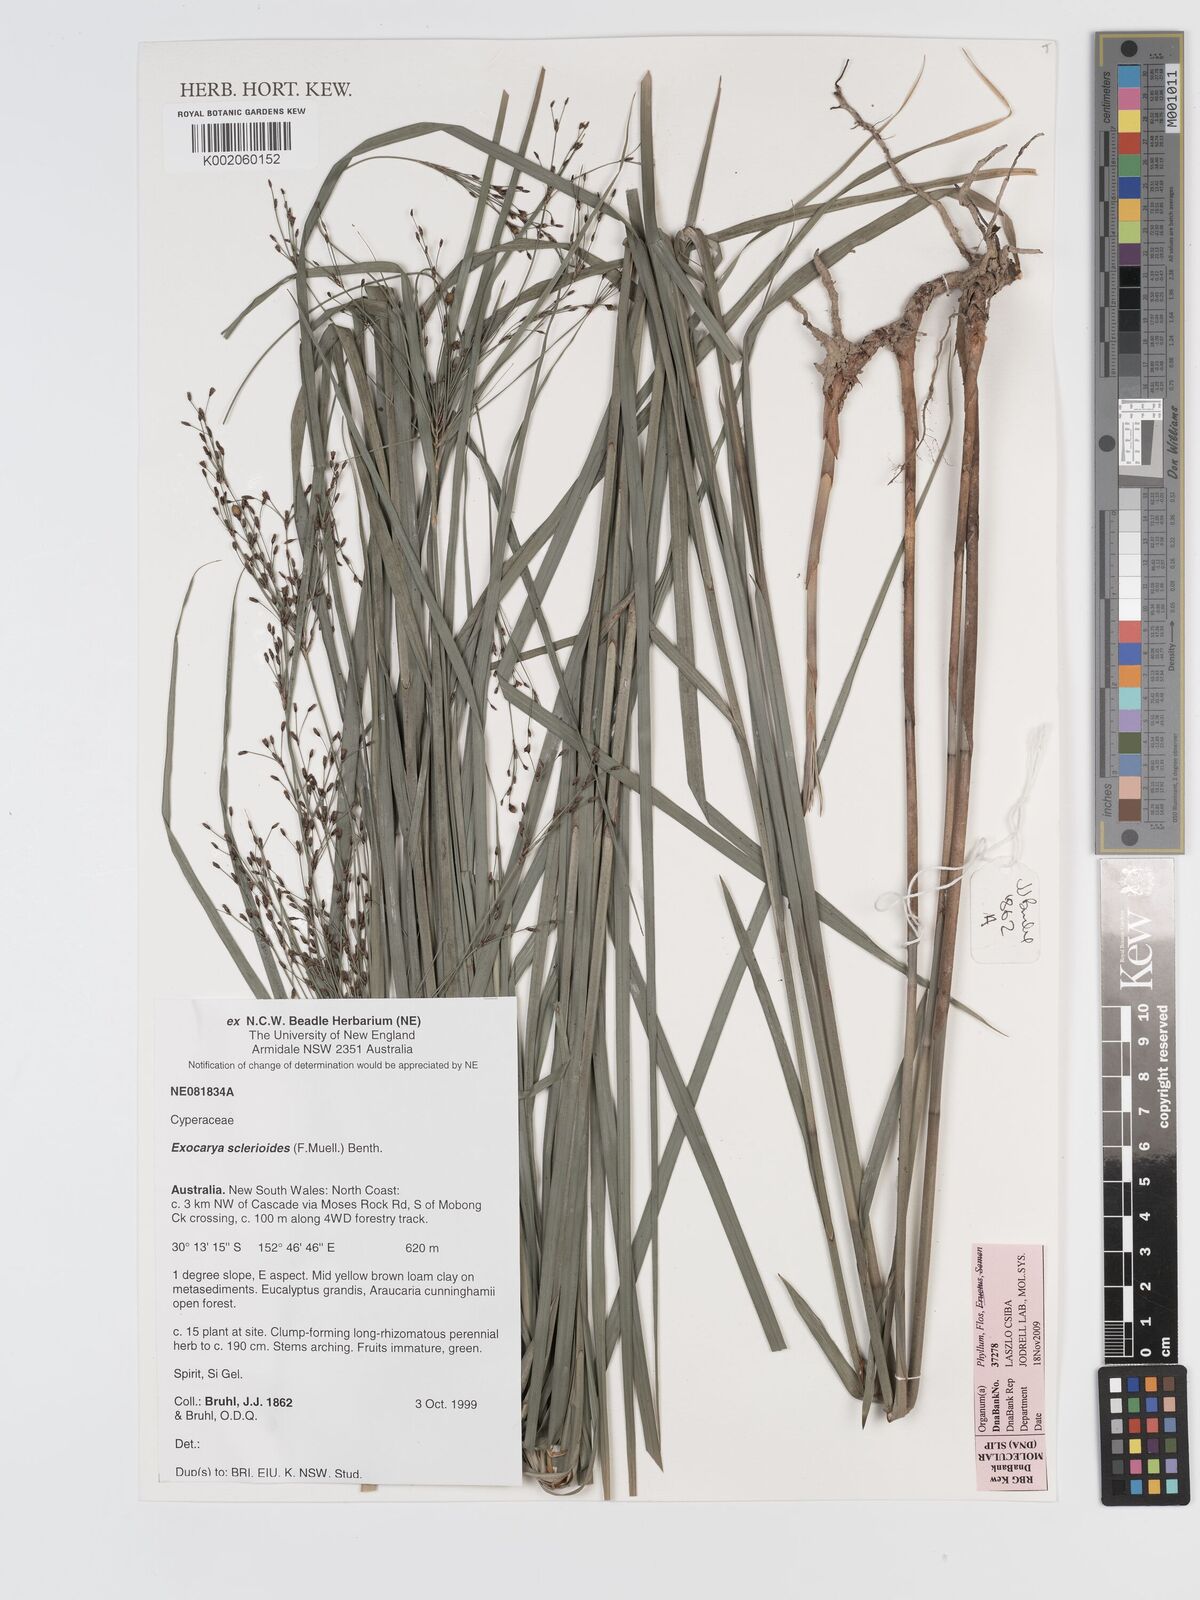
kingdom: Plantae
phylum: Tracheophyta
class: Liliopsida
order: Poales
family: Cyperaceae
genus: Exocarya
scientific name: Exocarya sclerioides
